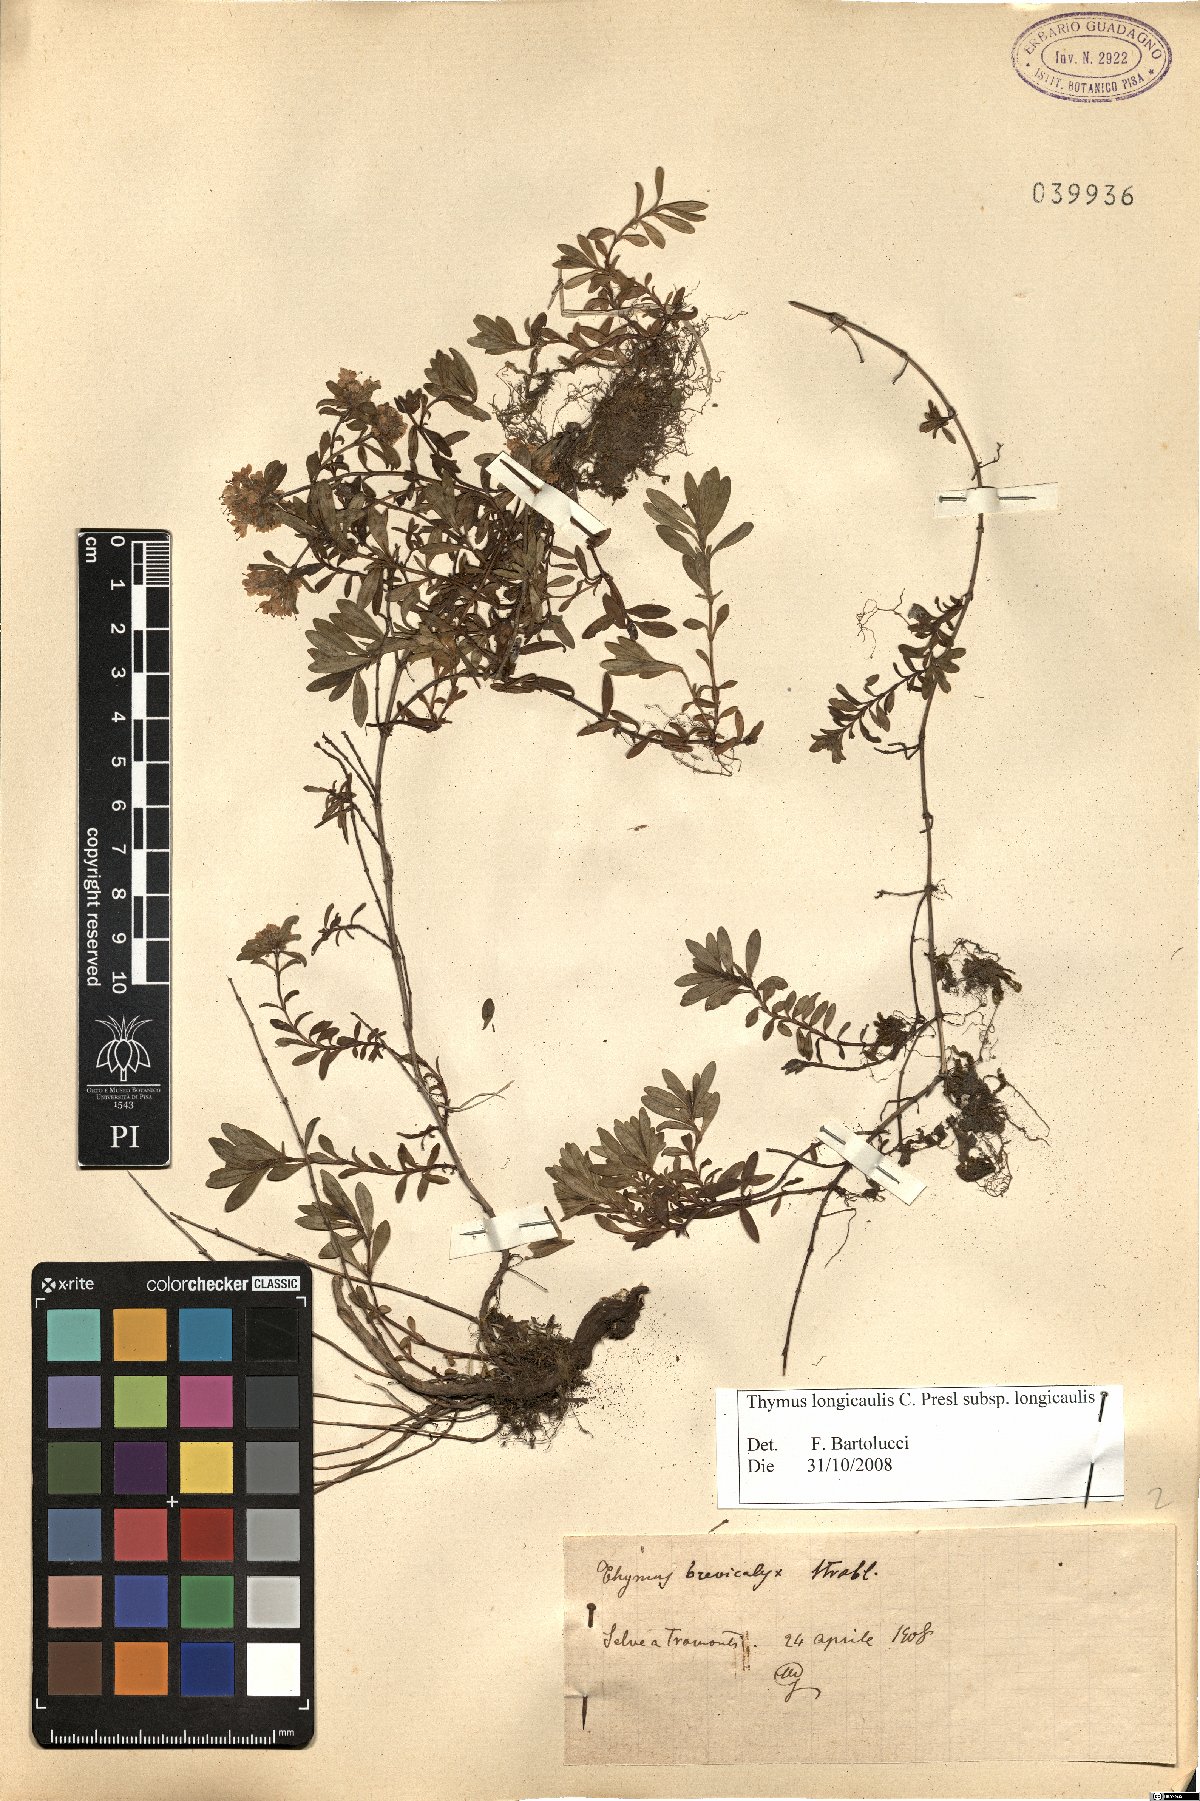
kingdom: Plantae
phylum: Tracheophyta
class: Magnoliopsida
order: Lamiales
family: Lamiaceae
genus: Thymus
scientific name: Thymus longicaulis
